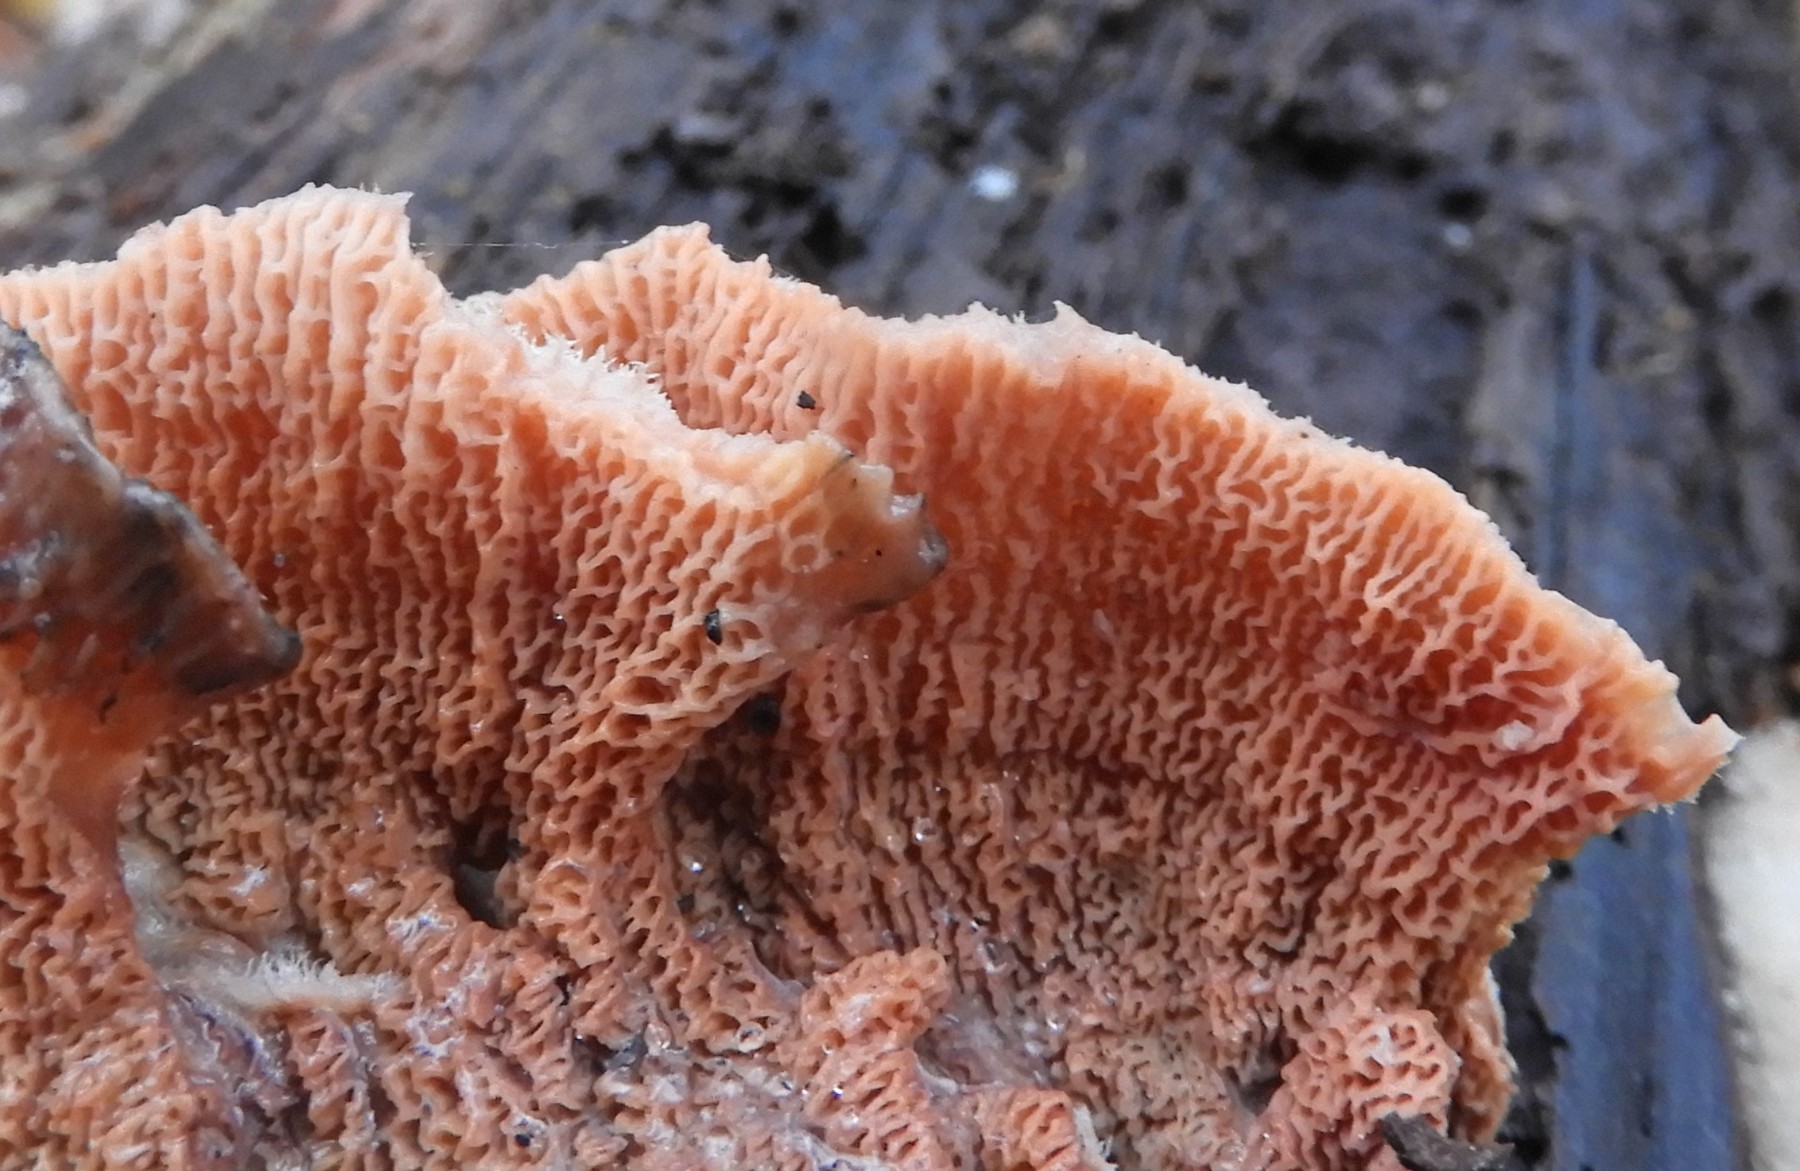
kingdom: Fungi
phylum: Basidiomycota
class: Agaricomycetes
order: Polyporales
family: Meruliaceae
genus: Phlebia
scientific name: Phlebia tremellosa
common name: bævrende åresvamp
